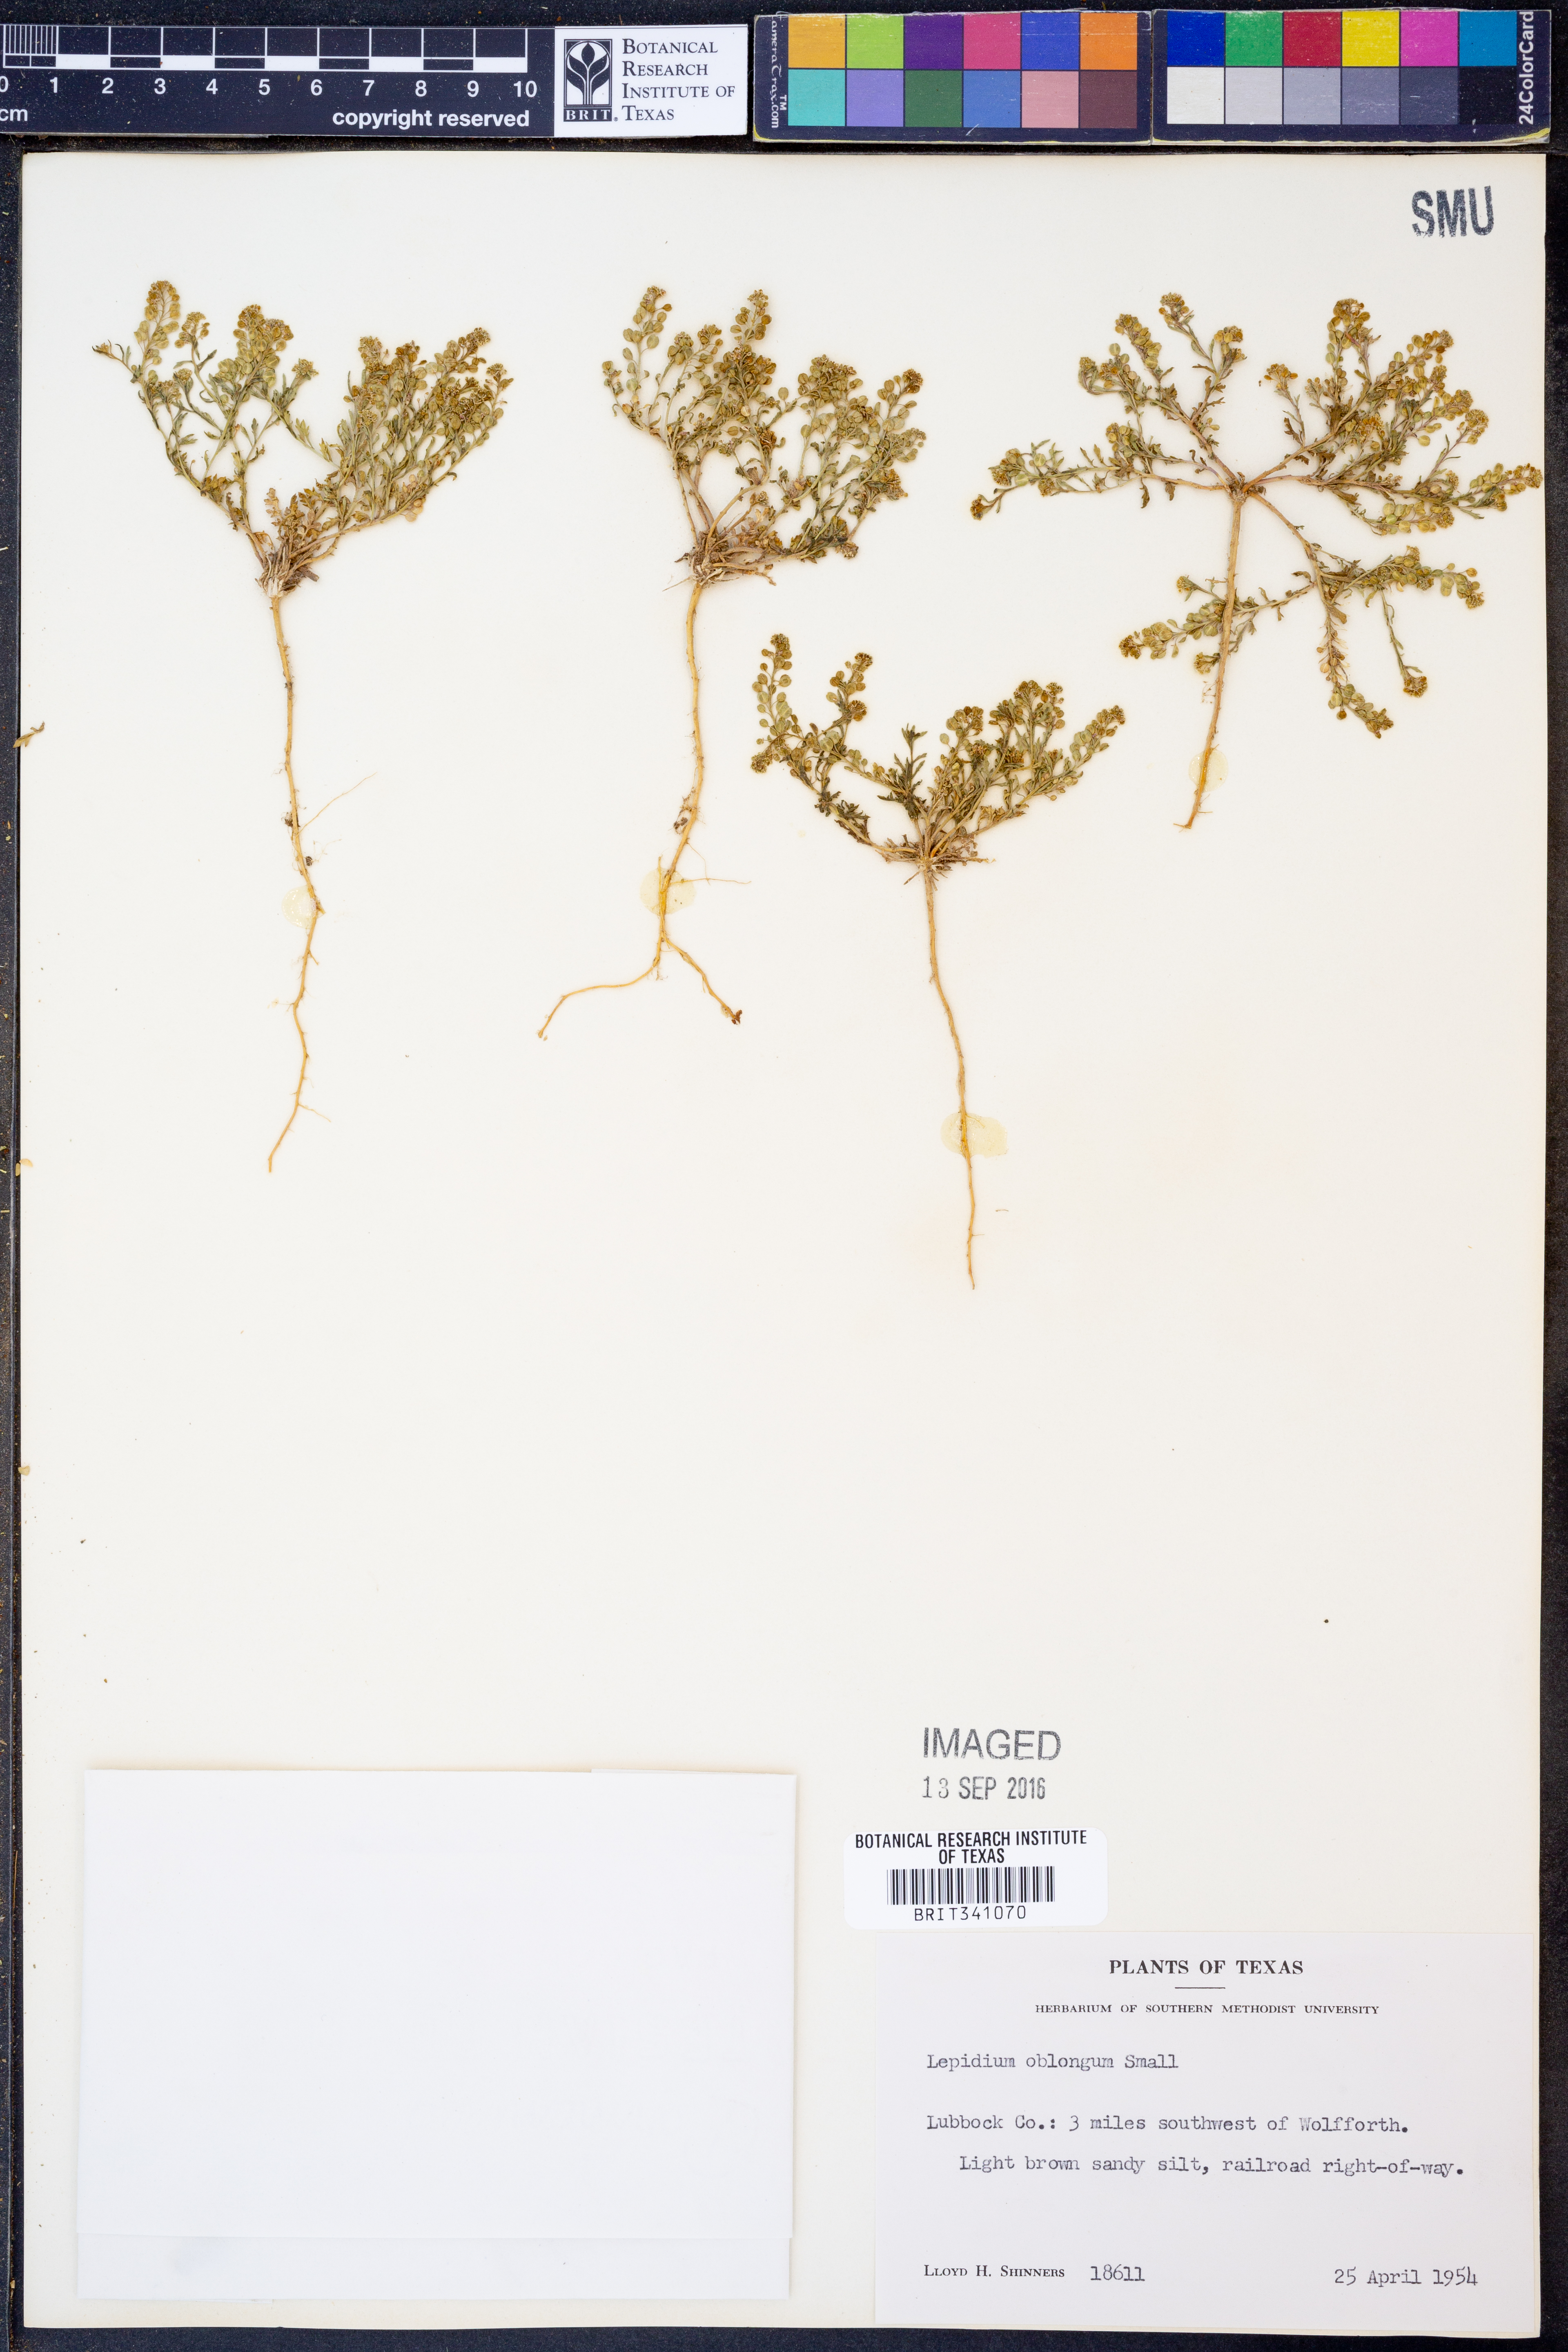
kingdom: Plantae
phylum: Tracheophyta
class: Magnoliopsida
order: Brassicales
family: Brassicaceae
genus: Lepidium
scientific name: Lepidium oblongum
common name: Veiny pepperweed
